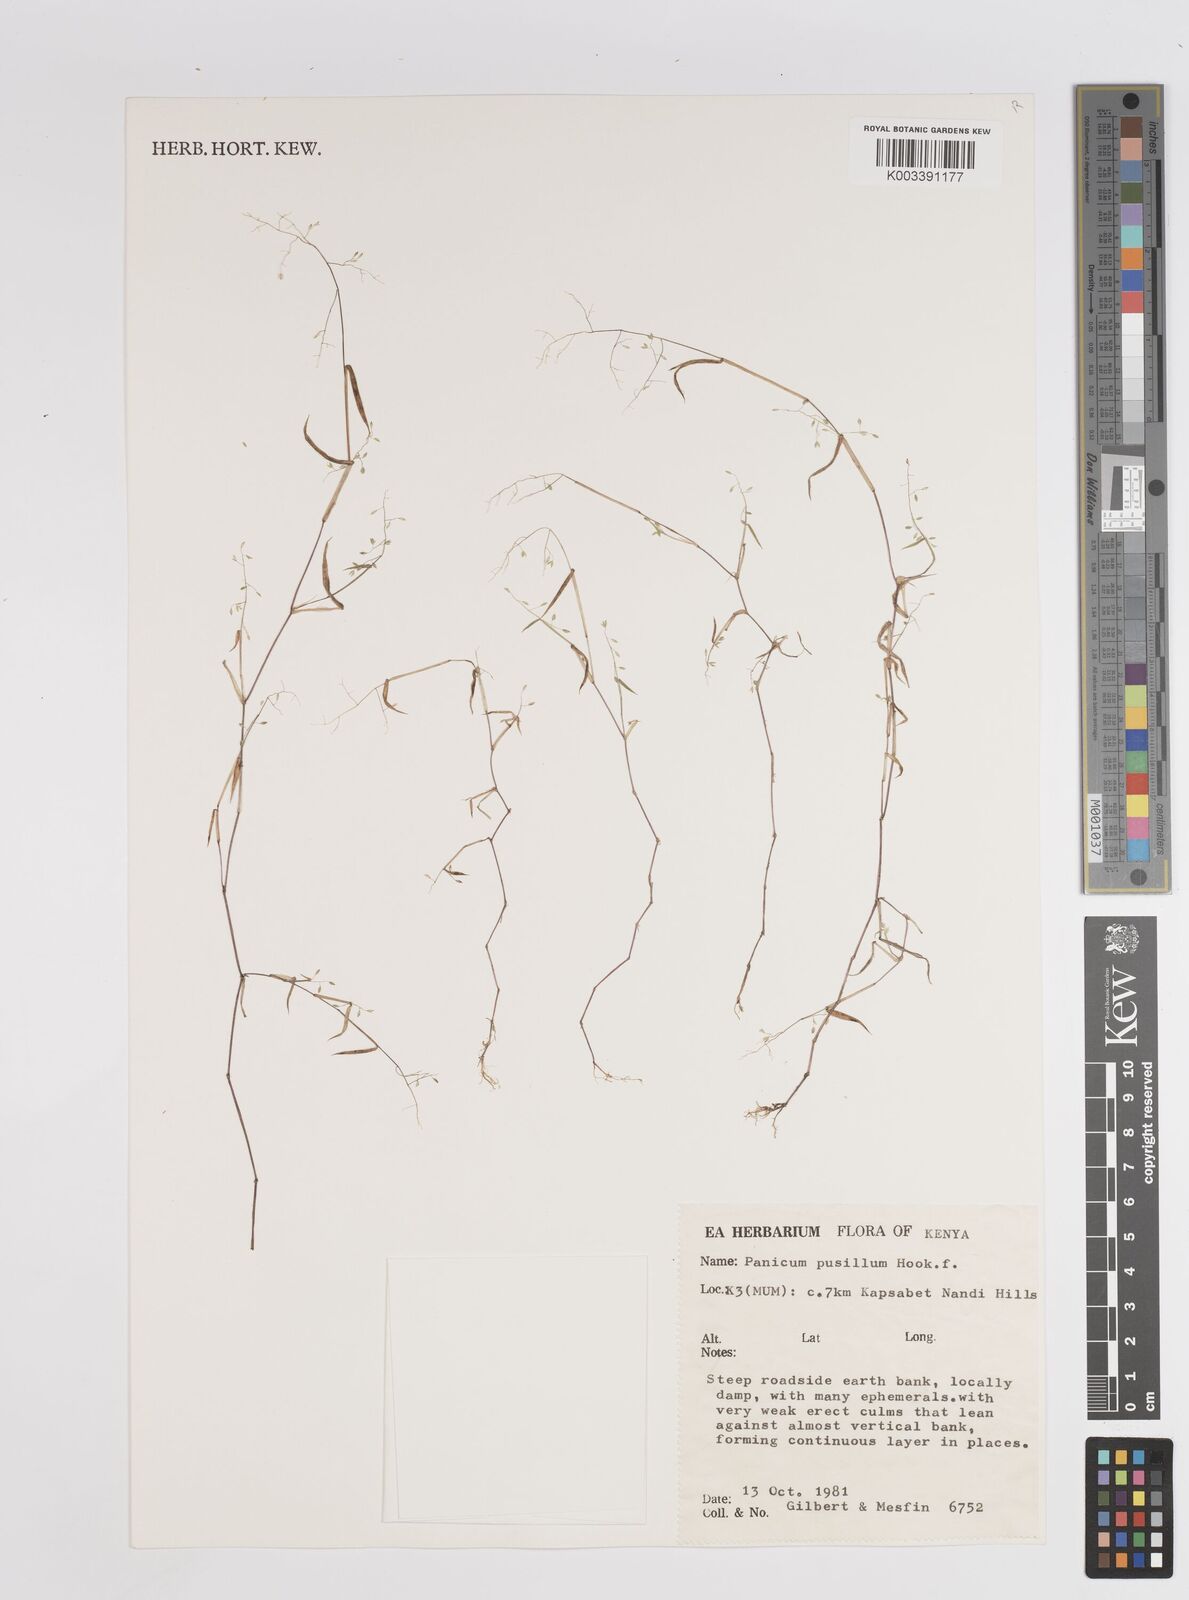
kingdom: Plantae
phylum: Tracheophyta
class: Liliopsida
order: Poales
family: Poaceae
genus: Panicum
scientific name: Panicum pusillum
